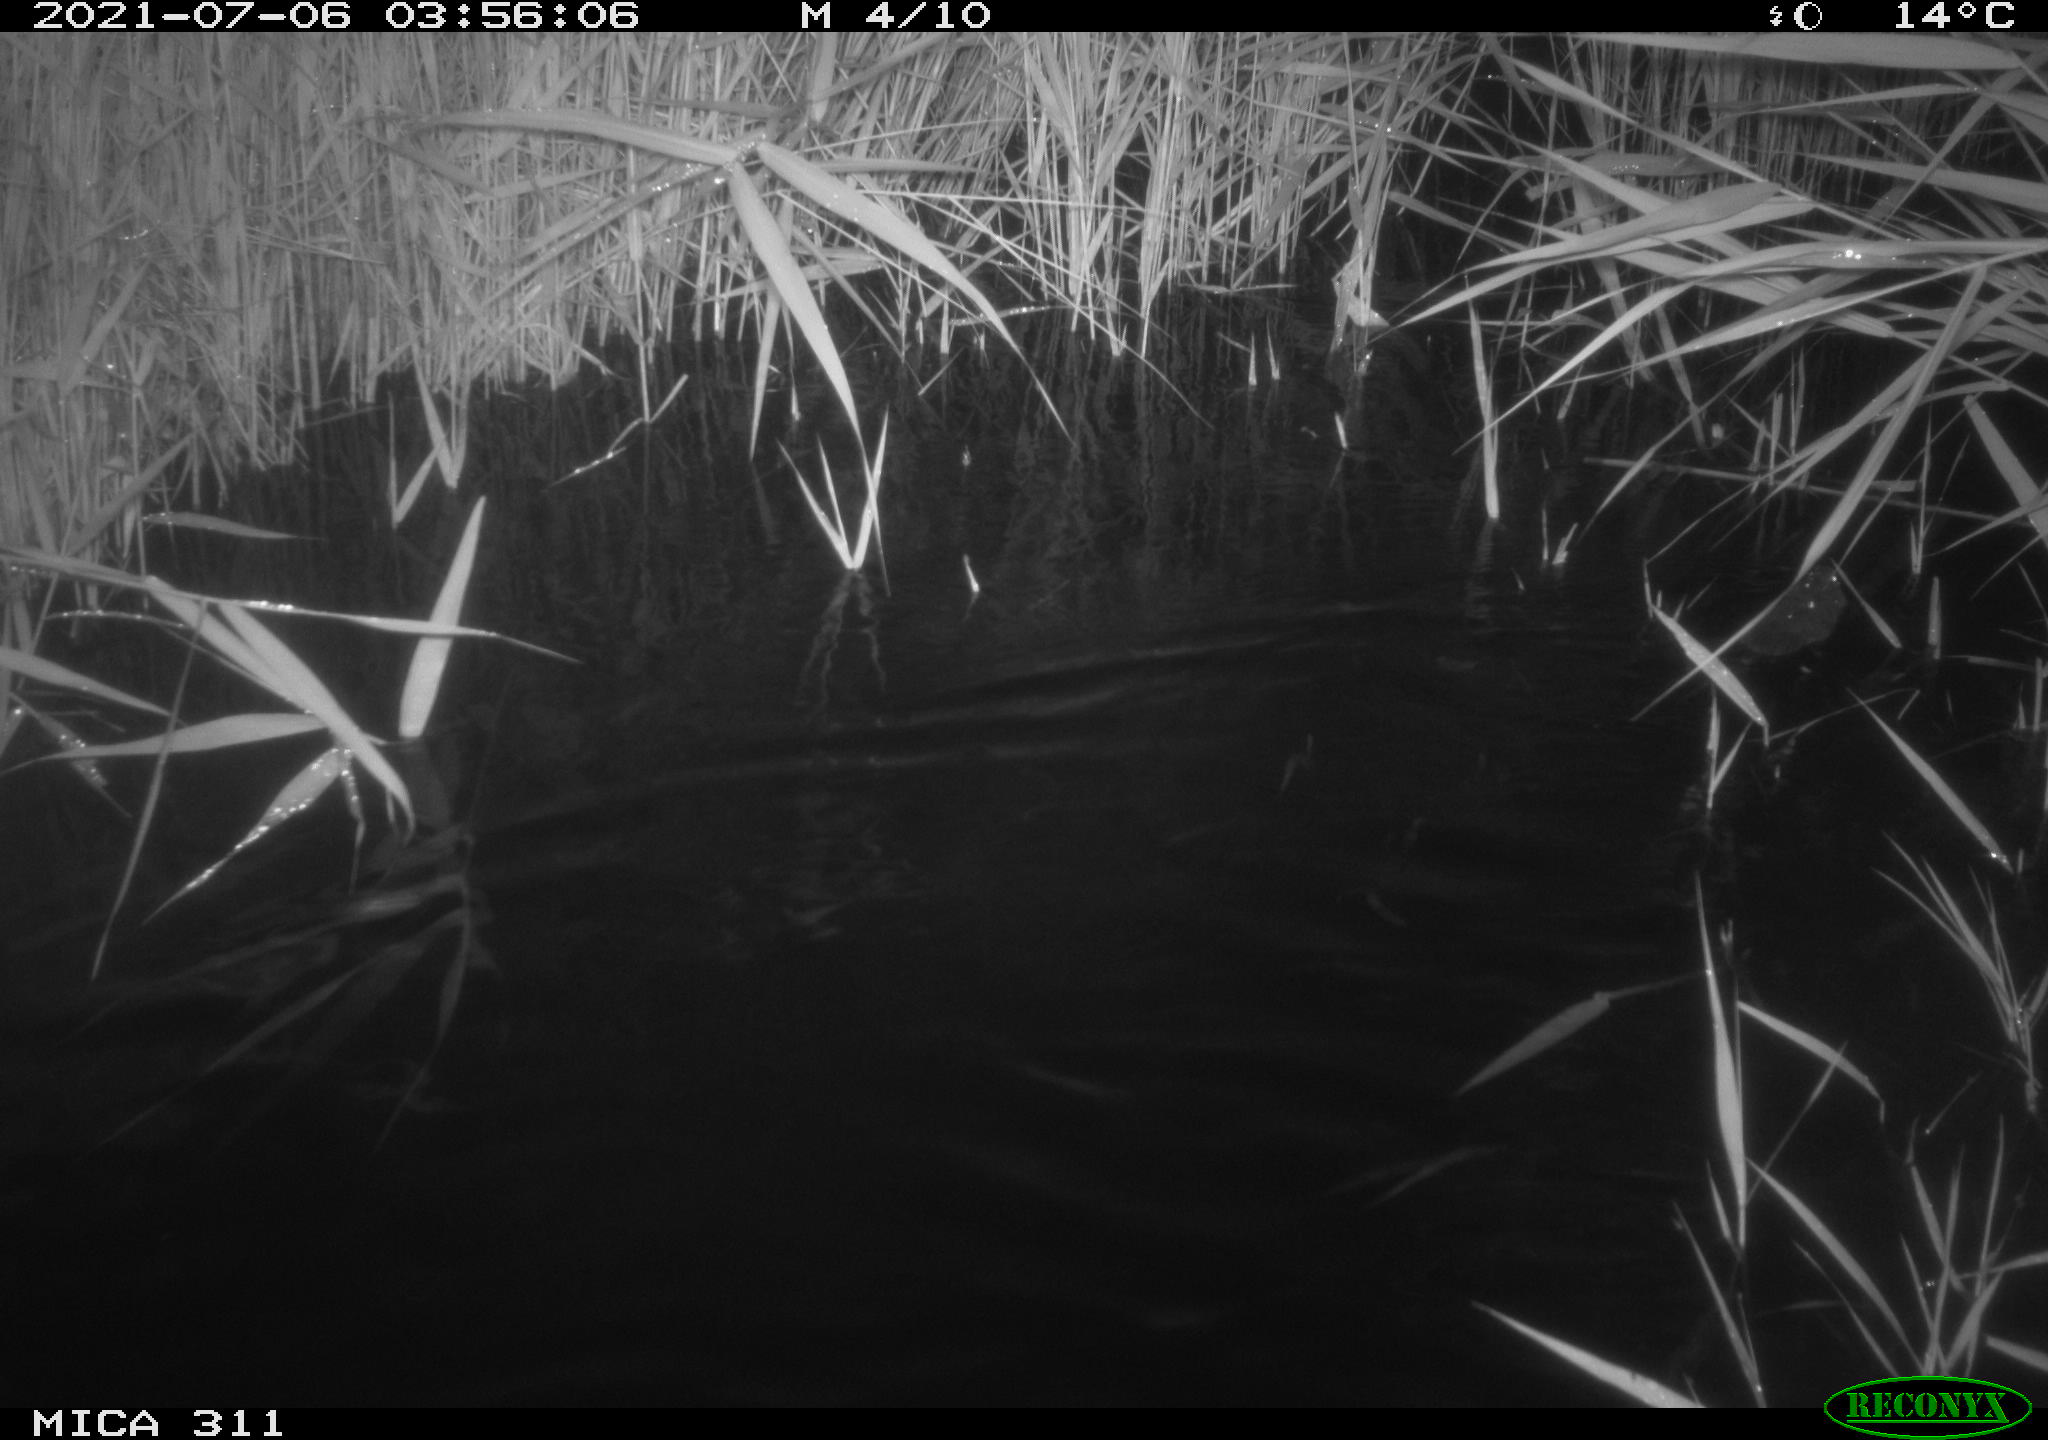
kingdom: Animalia
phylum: Chordata
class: Mammalia
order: Rodentia
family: Muridae
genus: Rattus
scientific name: Rattus norvegicus
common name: Brown rat
